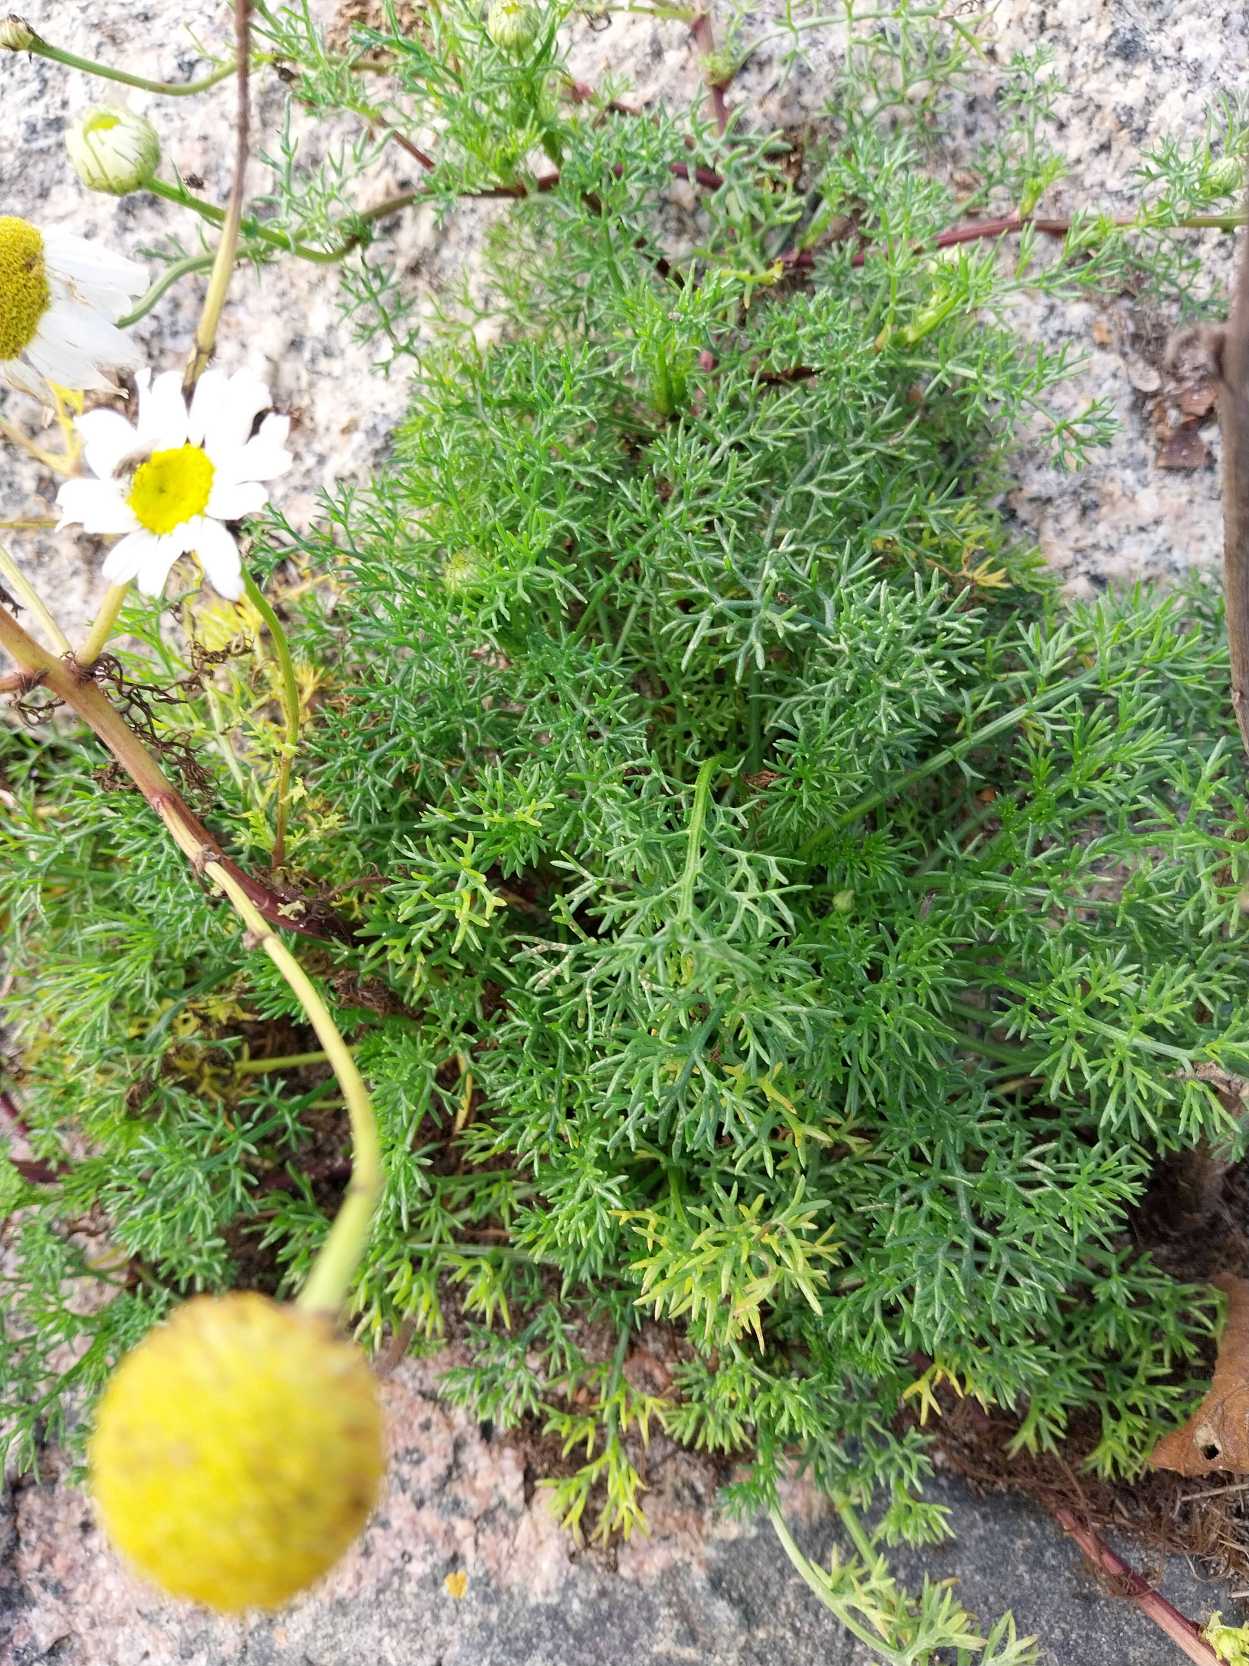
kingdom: Plantae
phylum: Tracheophyta
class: Magnoliopsida
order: Asterales
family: Asteraceae
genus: Tripleurospermum
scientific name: Tripleurospermum maritimum
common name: Strand-kamille
